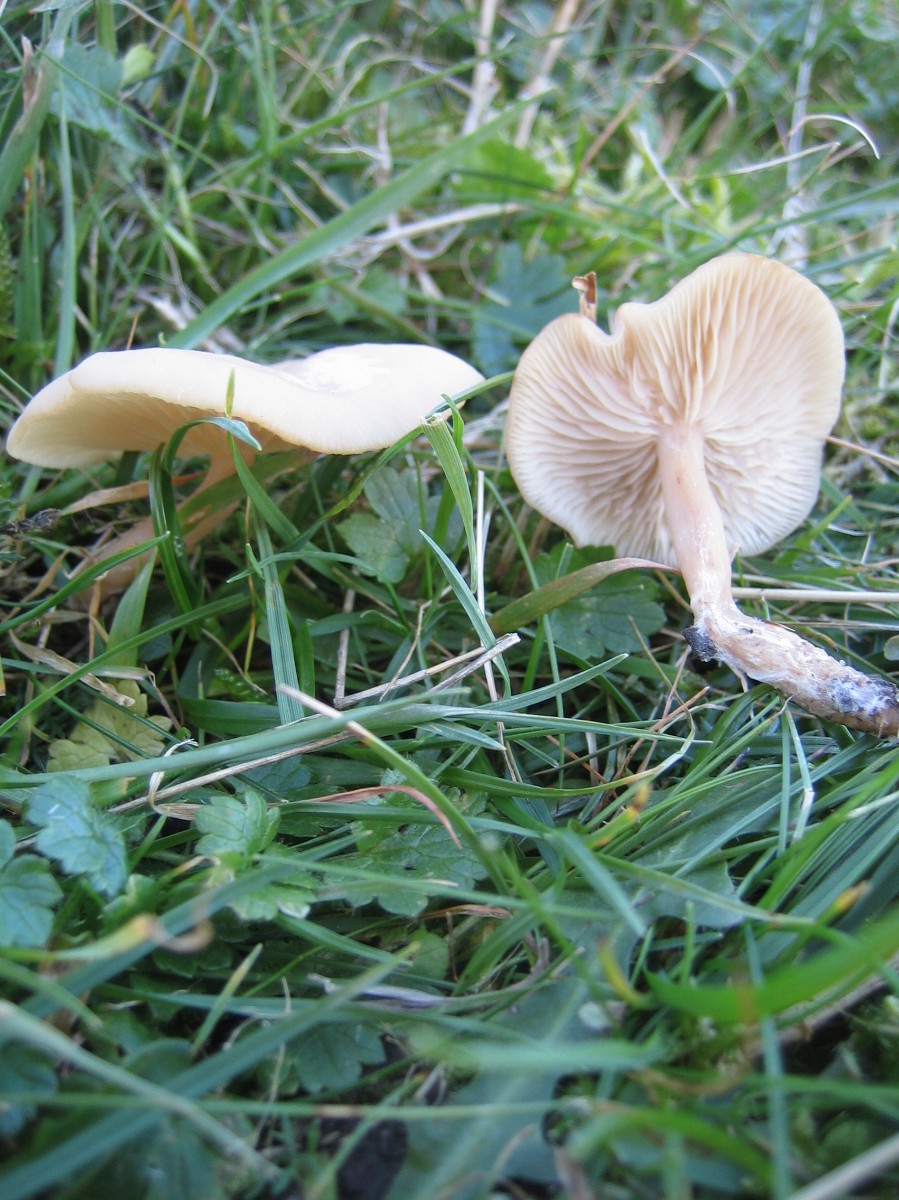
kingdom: Fungi
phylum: Basidiomycota
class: Agaricomycetes
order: Agaricales
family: Tricholomataceae
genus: Clitocybe
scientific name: Clitocybe fragrans
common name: vellugtende tragthat
